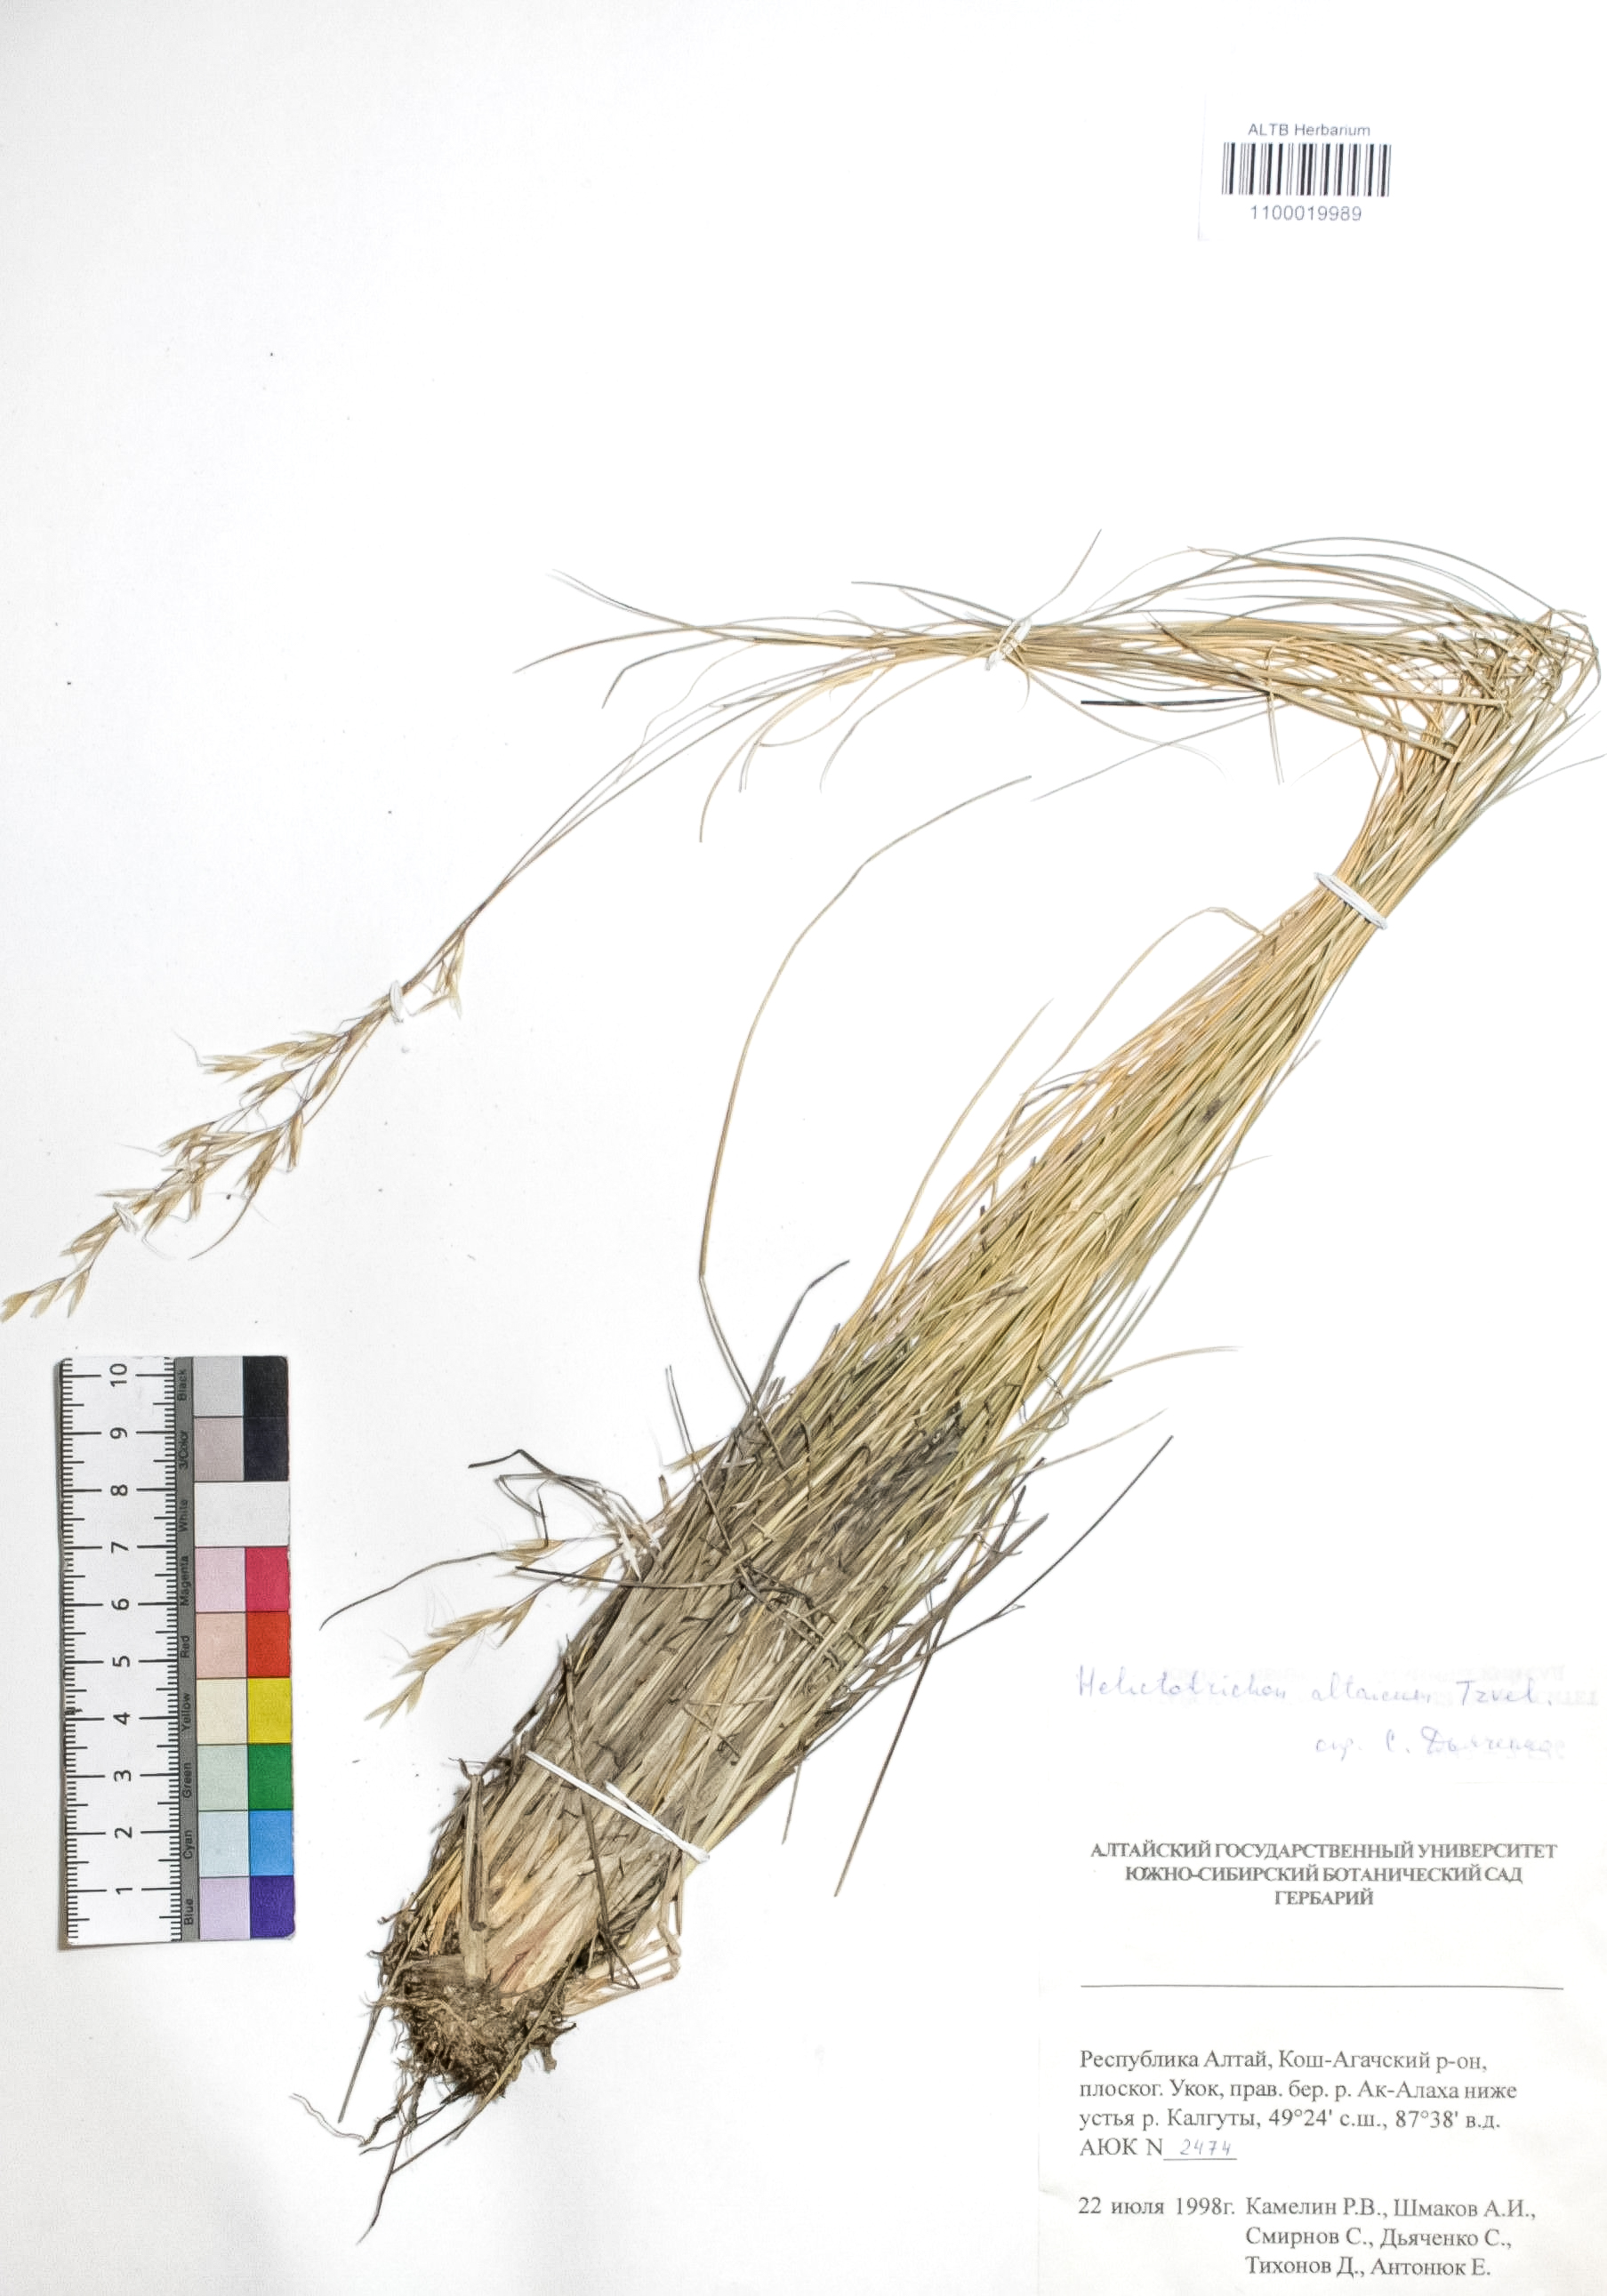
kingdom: Plantae
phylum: Tracheophyta
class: Liliopsida
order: Poales
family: Poaceae
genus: Helictotrichon
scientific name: Helictotrichon desertorum
